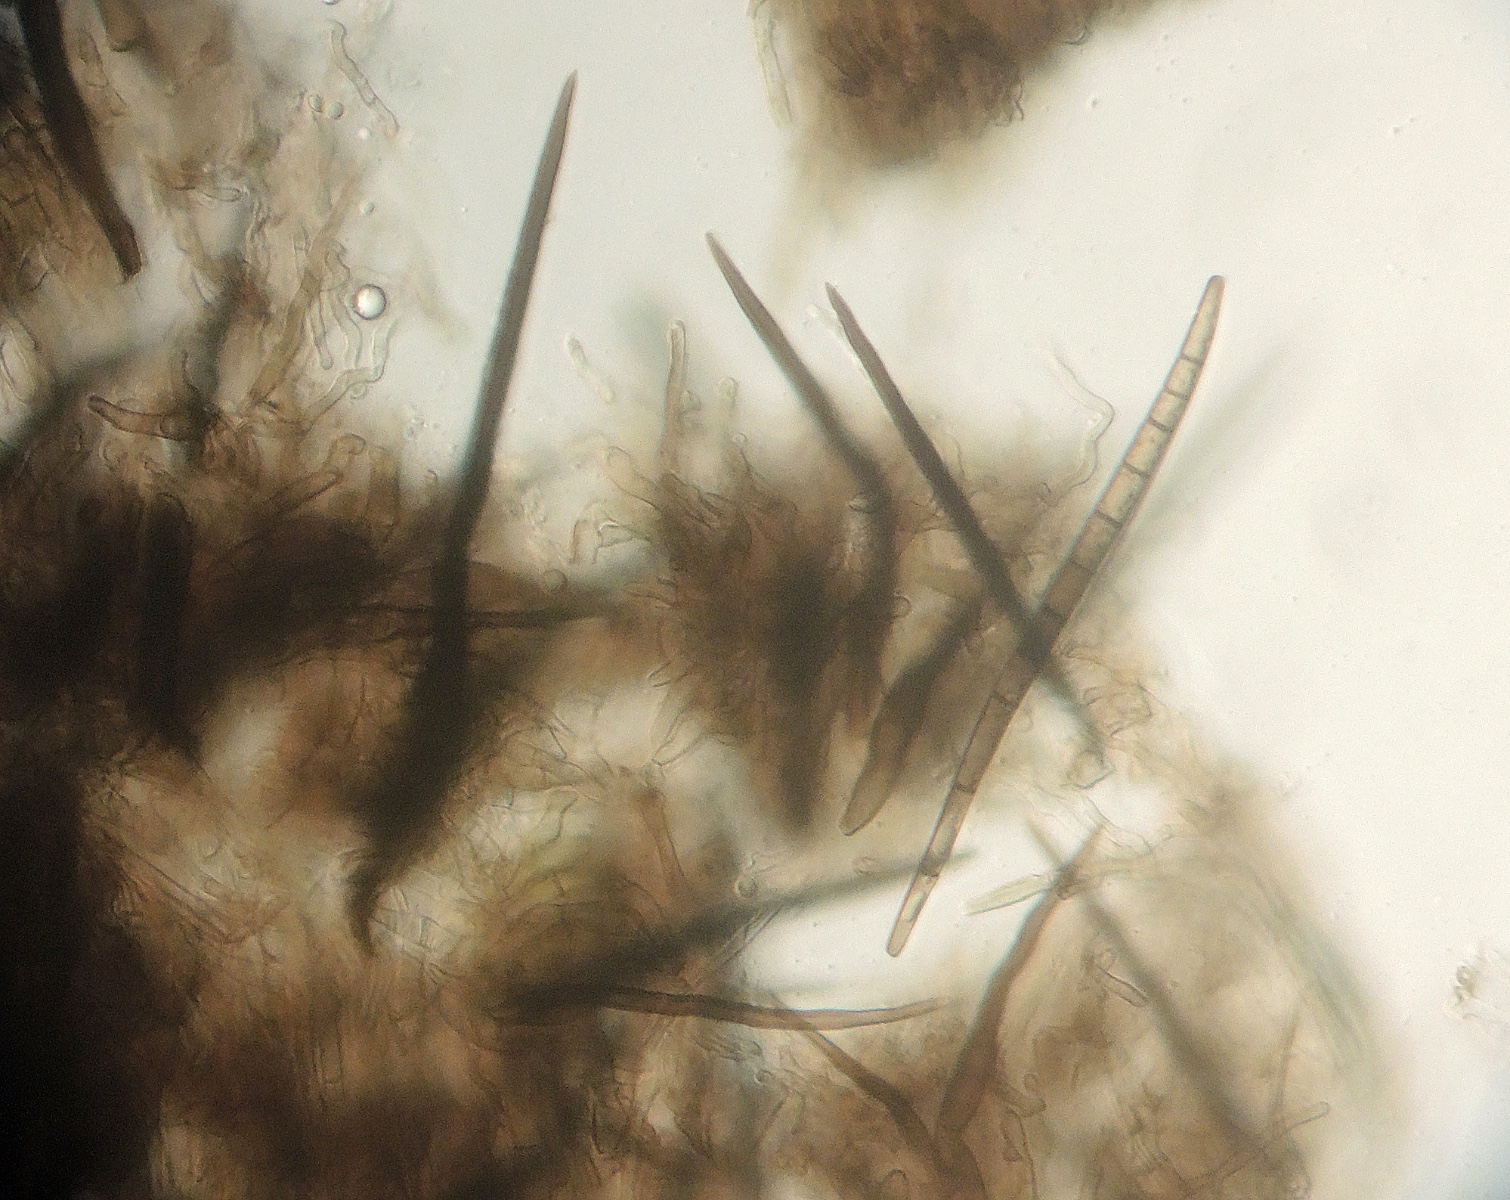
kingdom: Fungi
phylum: Ascomycota
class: Geoglossomycetes
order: Geoglossales
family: Geoglossaceae
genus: Trichoglossum
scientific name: Trichoglossum hirsutum
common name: håret jordtunge
